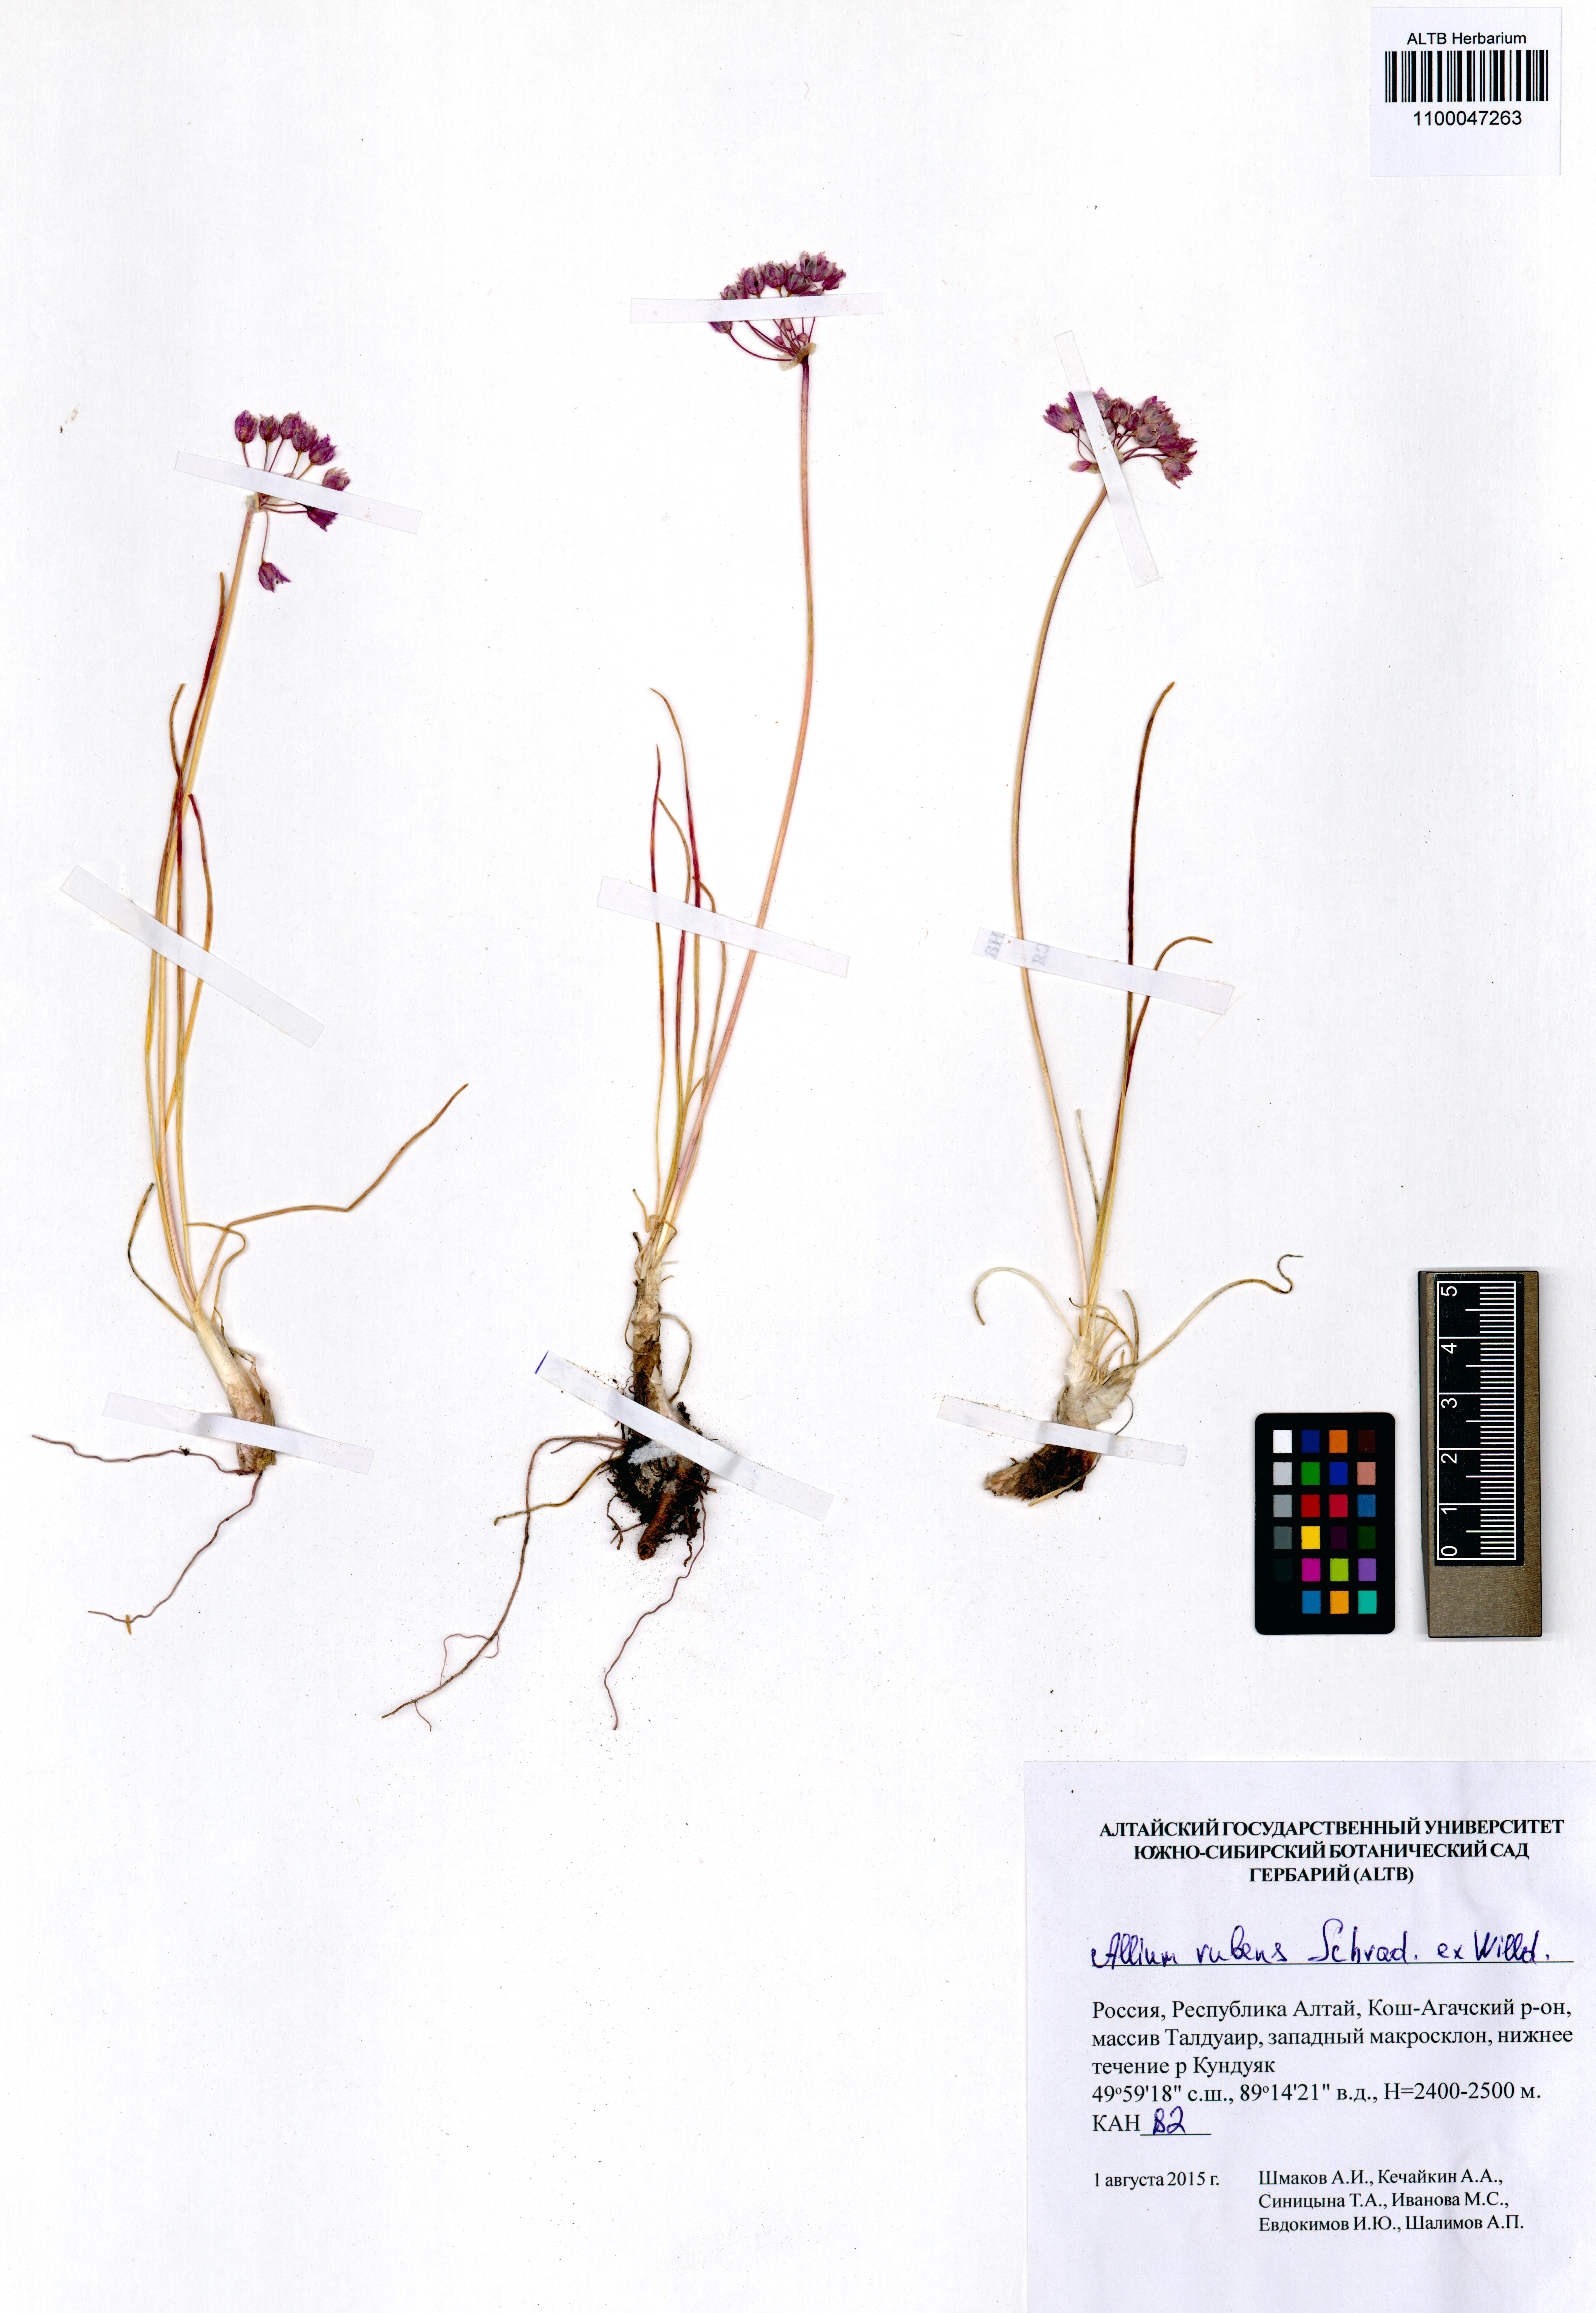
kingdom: Plantae
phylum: Tracheophyta
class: Liliopsida
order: Asparagales
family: Amaryllidaceae
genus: Allium
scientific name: Allium rubens
